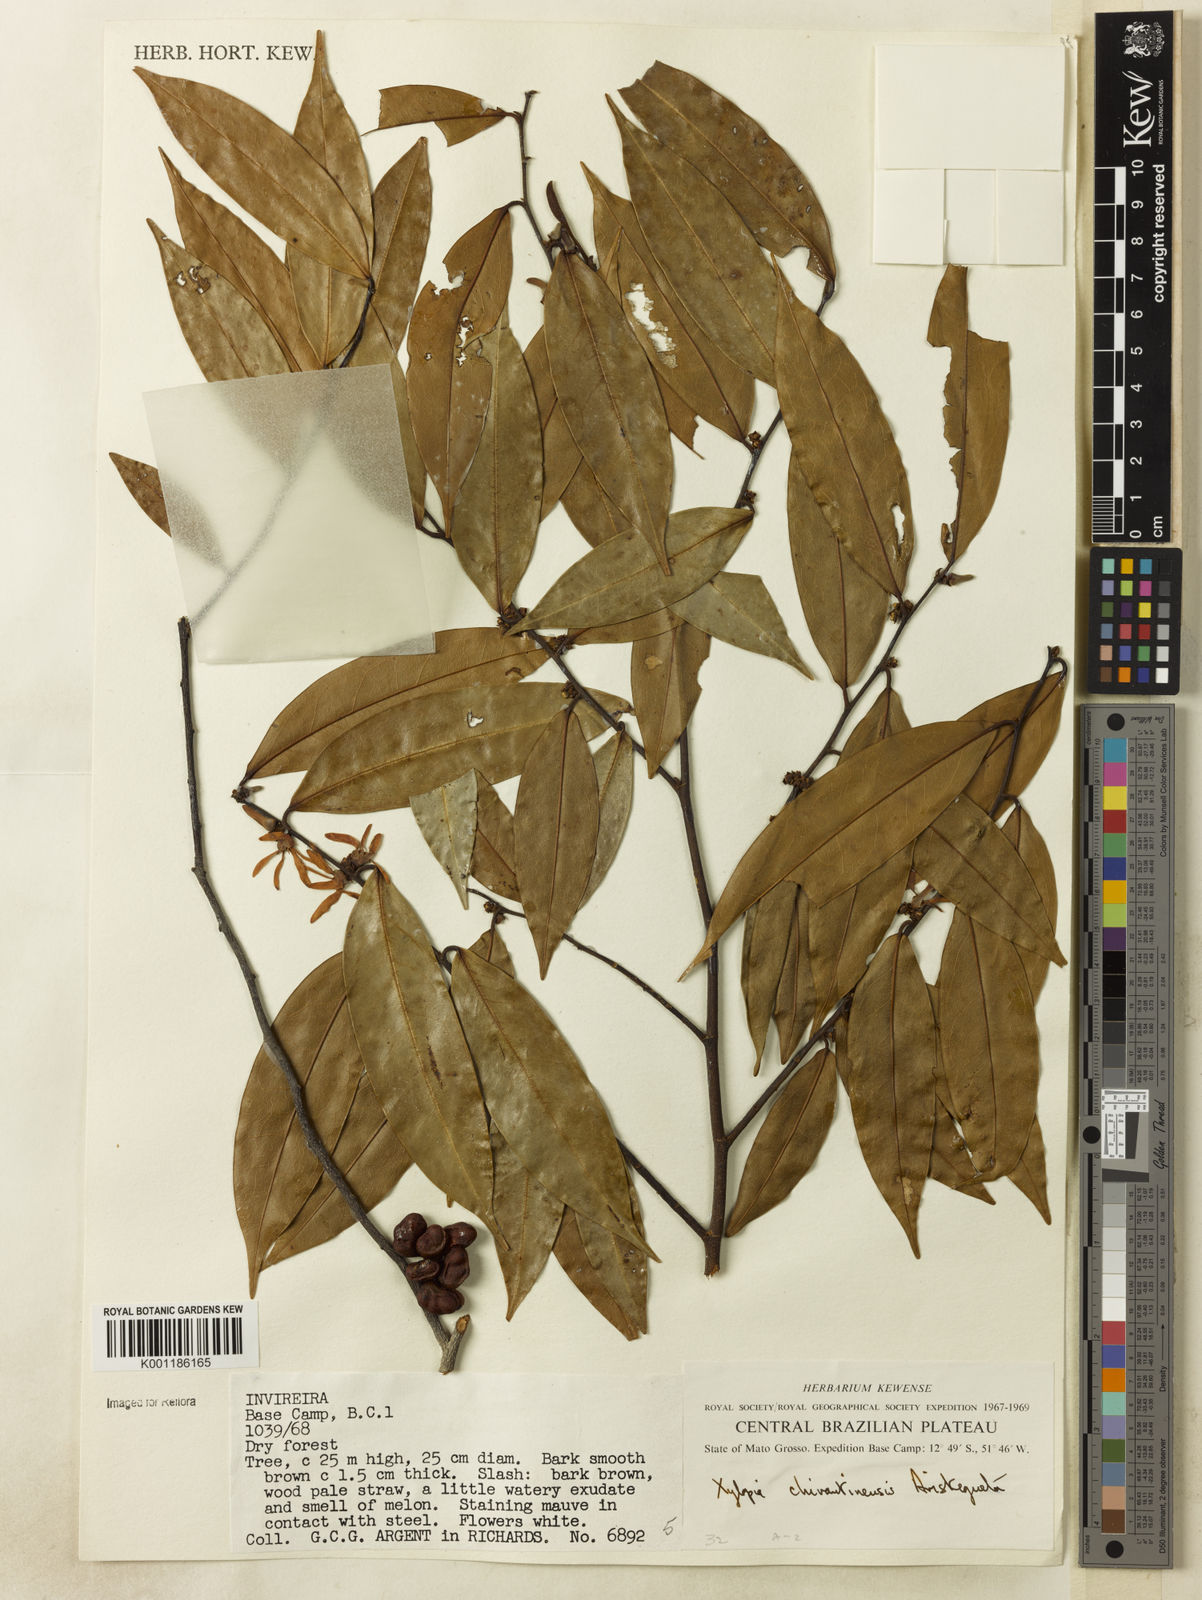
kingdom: Plantae
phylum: Tracheophyta
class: Magnoliopsida
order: Magnoliales
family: Annonaceae
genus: Xylopia
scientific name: Xylopia
